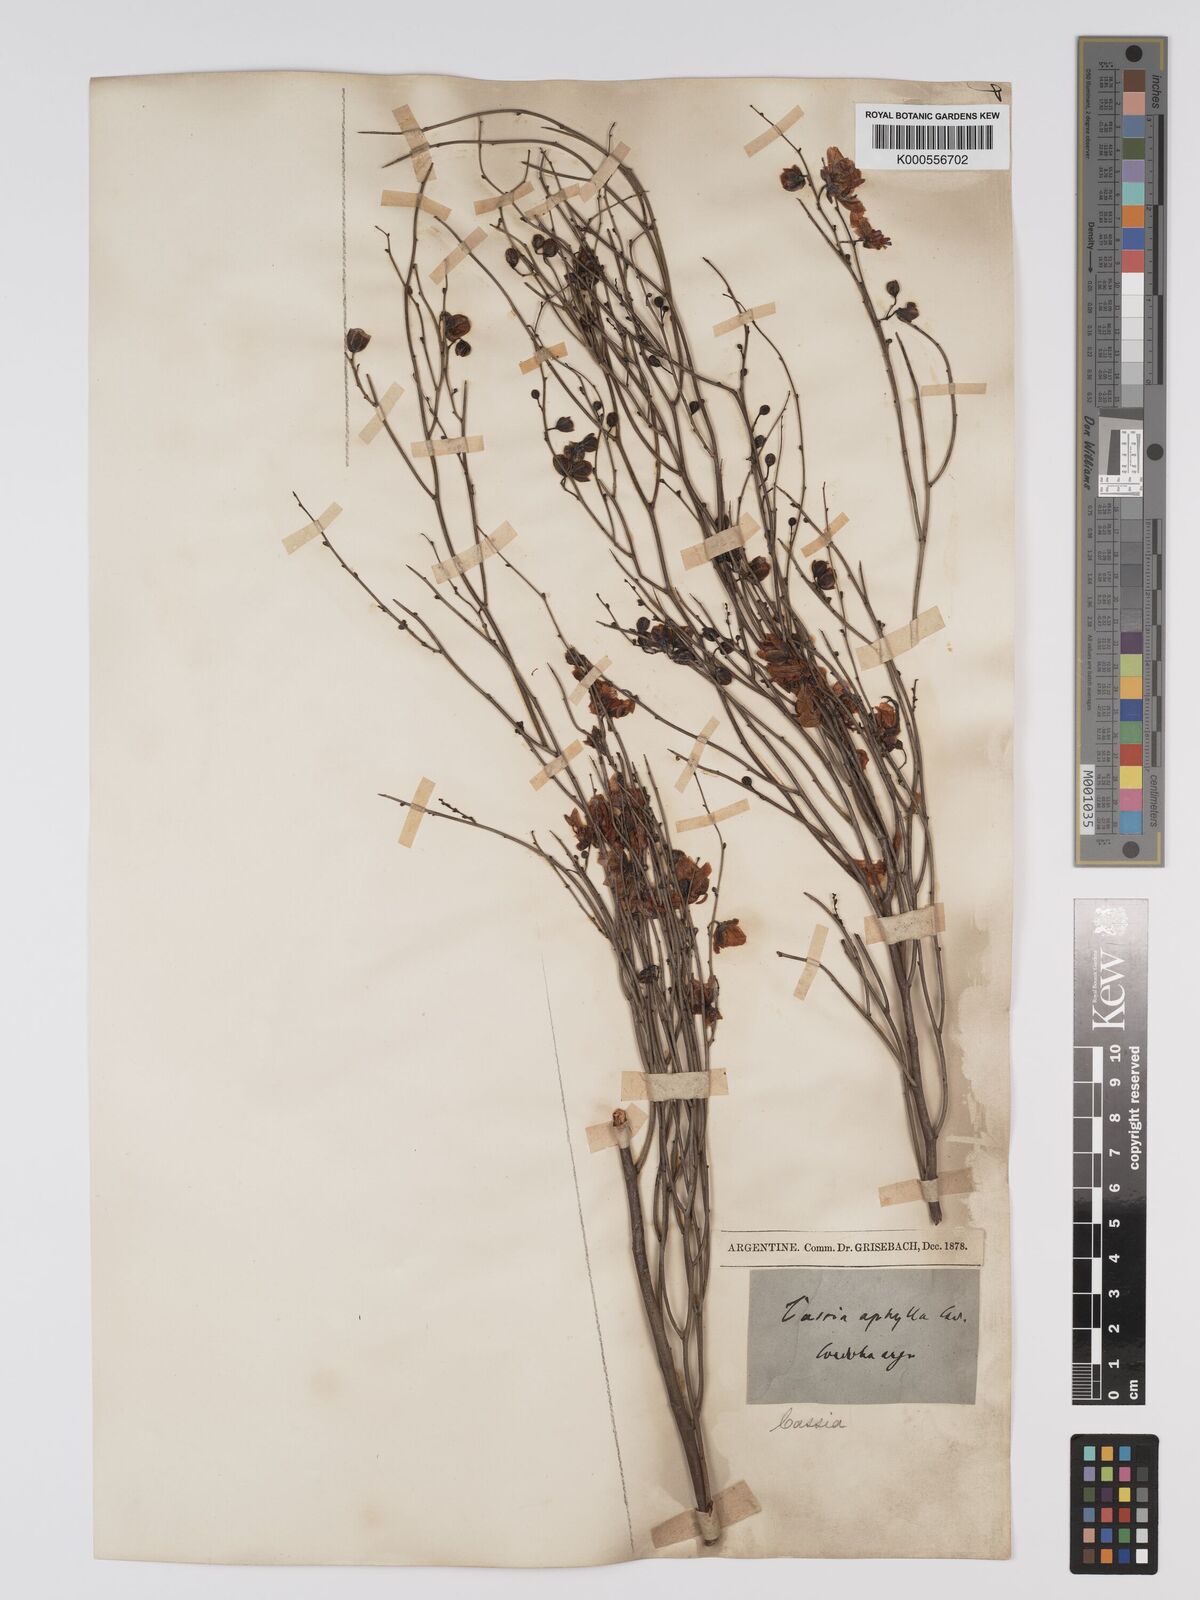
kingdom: Plantae
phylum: Tracheophyta
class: Magnoliopsida
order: Fabales
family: Fabaceae
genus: Senna
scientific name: Senna aphylla
